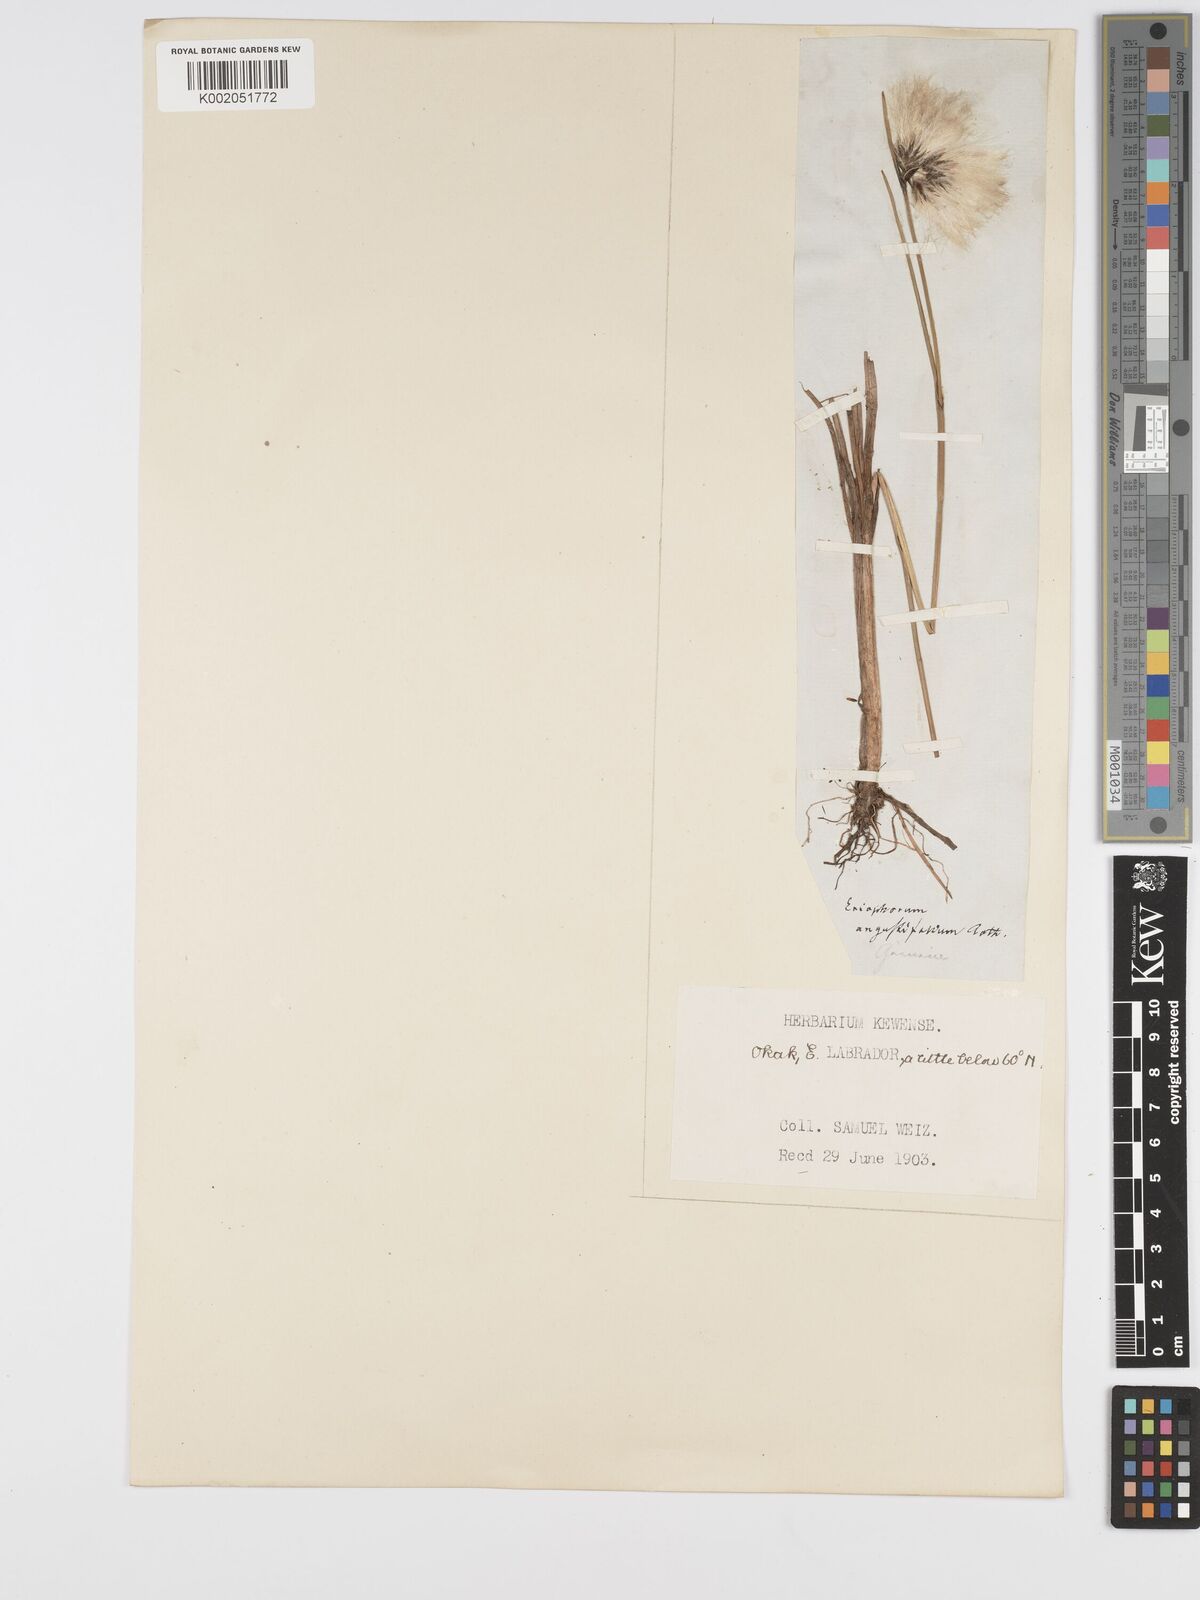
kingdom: Plantae
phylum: Tracheophyta
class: Liliopsida
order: Poales
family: Cyperaceae
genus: Eriophorum
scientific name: Eriophorum angustifolium
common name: Common cottongrass
